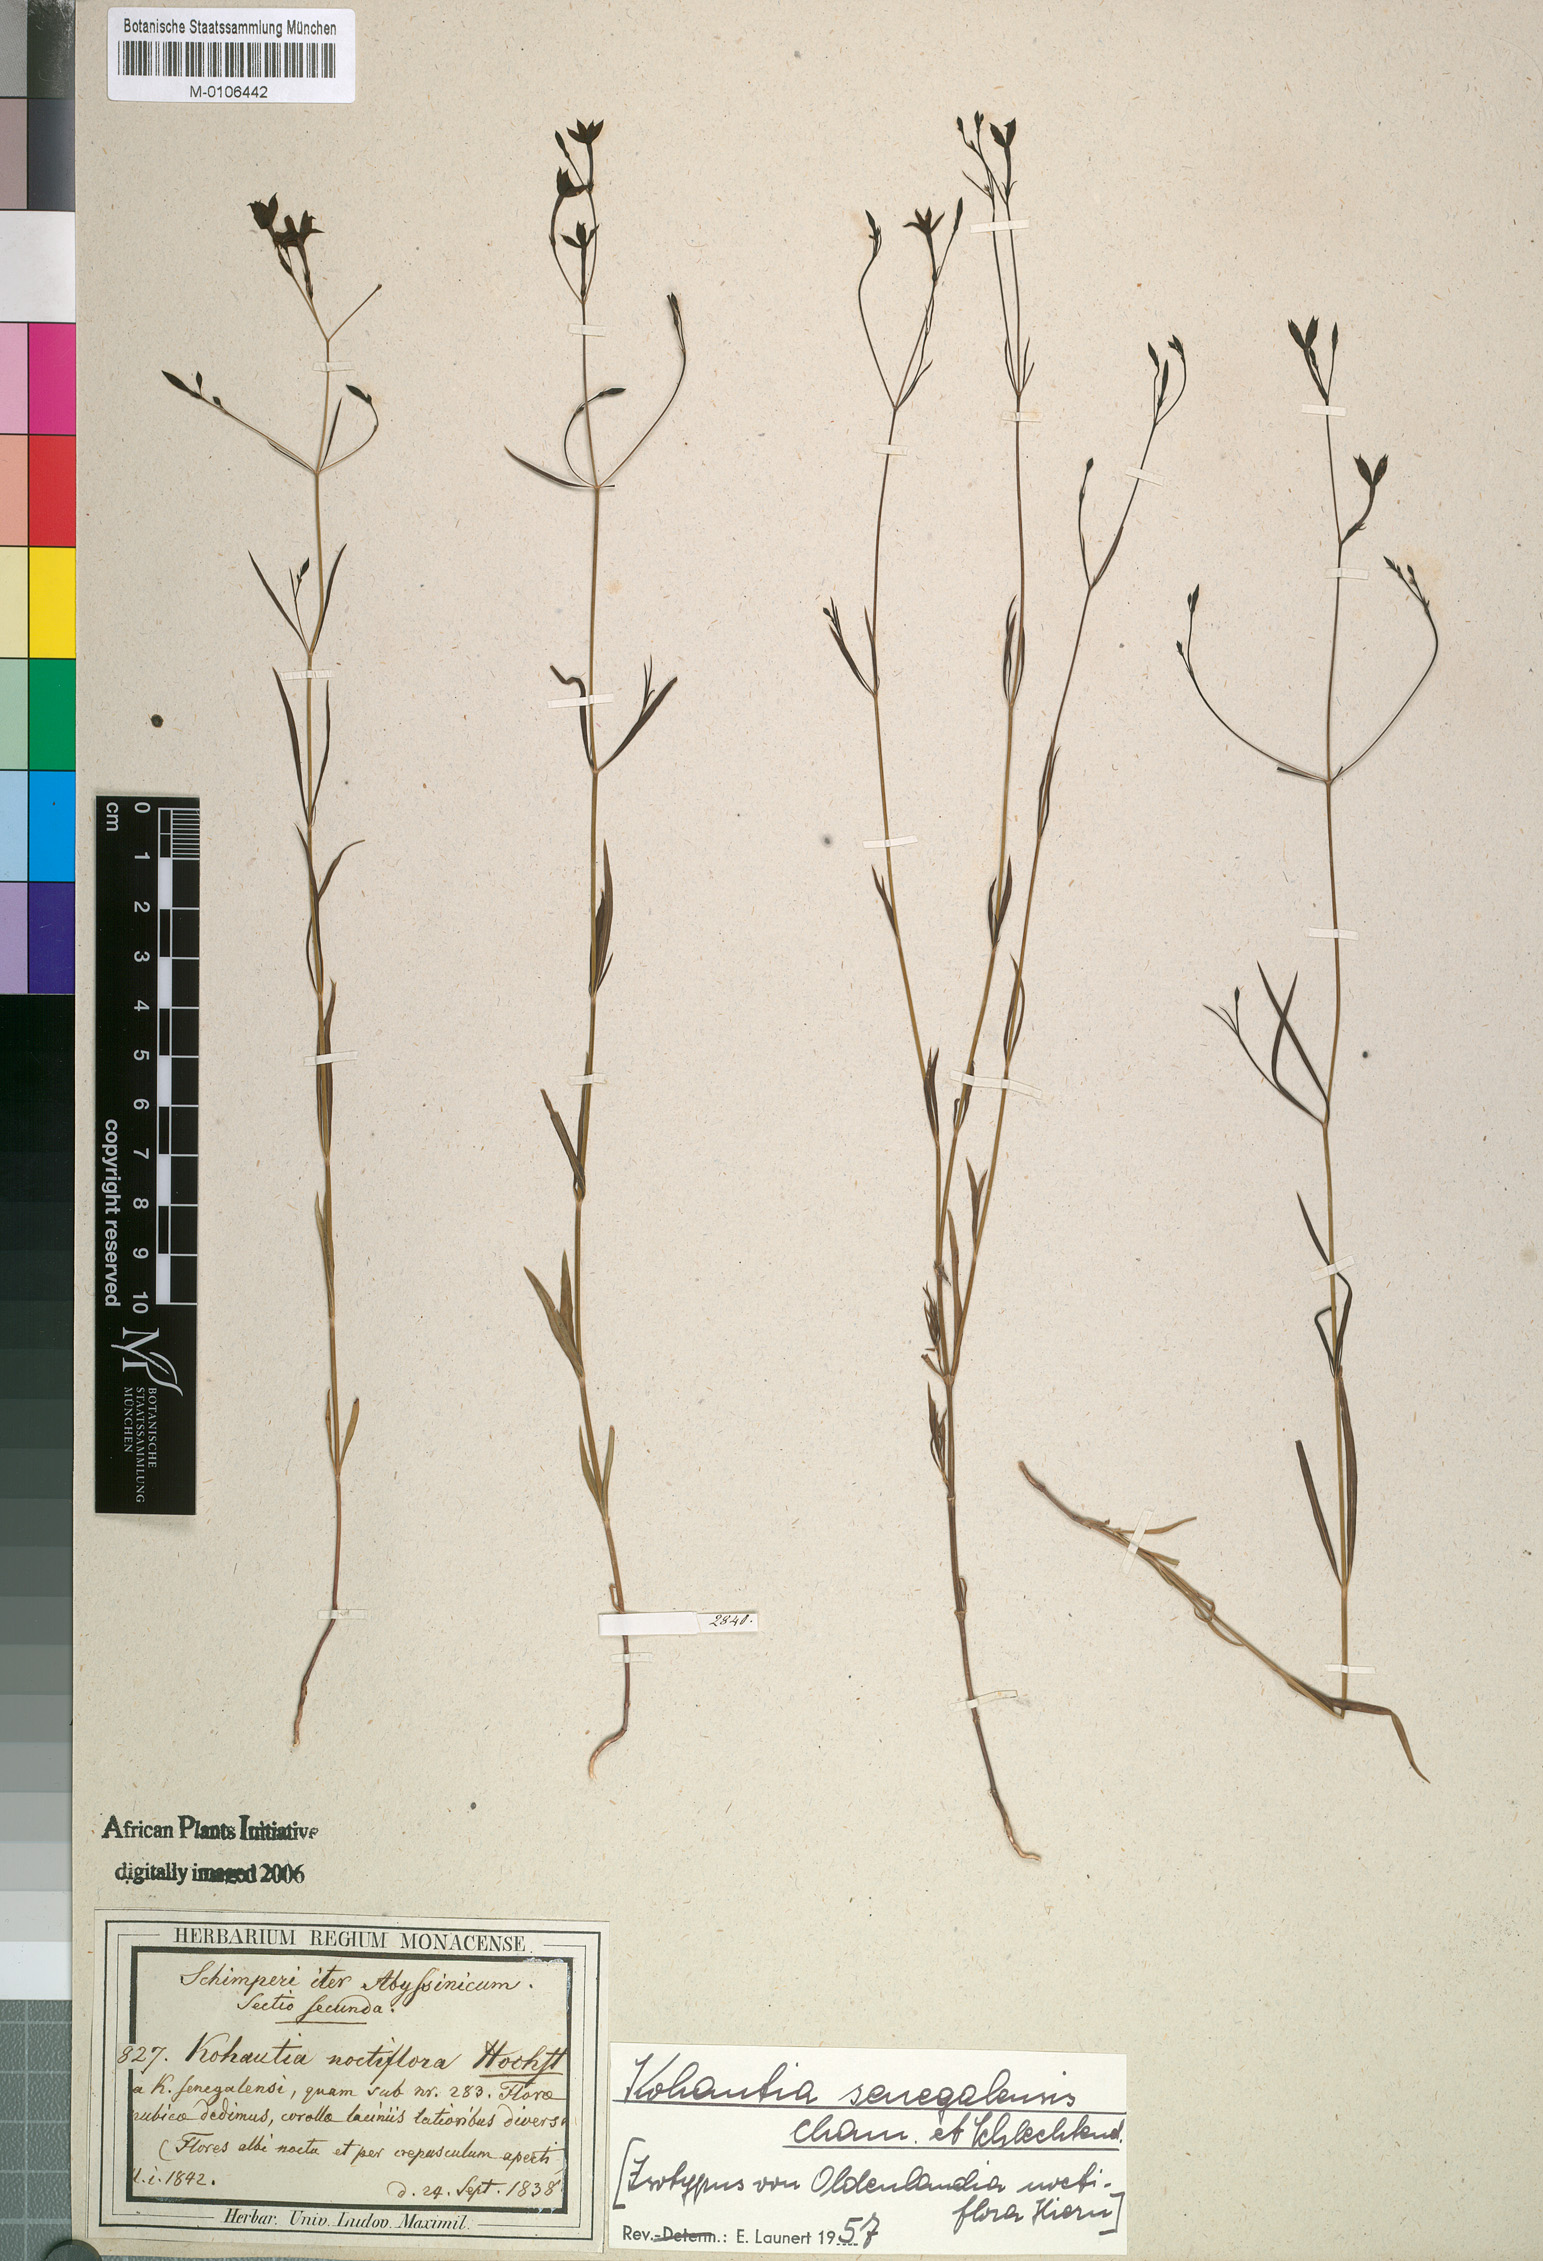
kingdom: Plantae
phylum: Tracheophyta
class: Magnoliopsida
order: Gentianales
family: Rubiaceae
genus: Kohautia
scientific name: Kohautia tenuis
